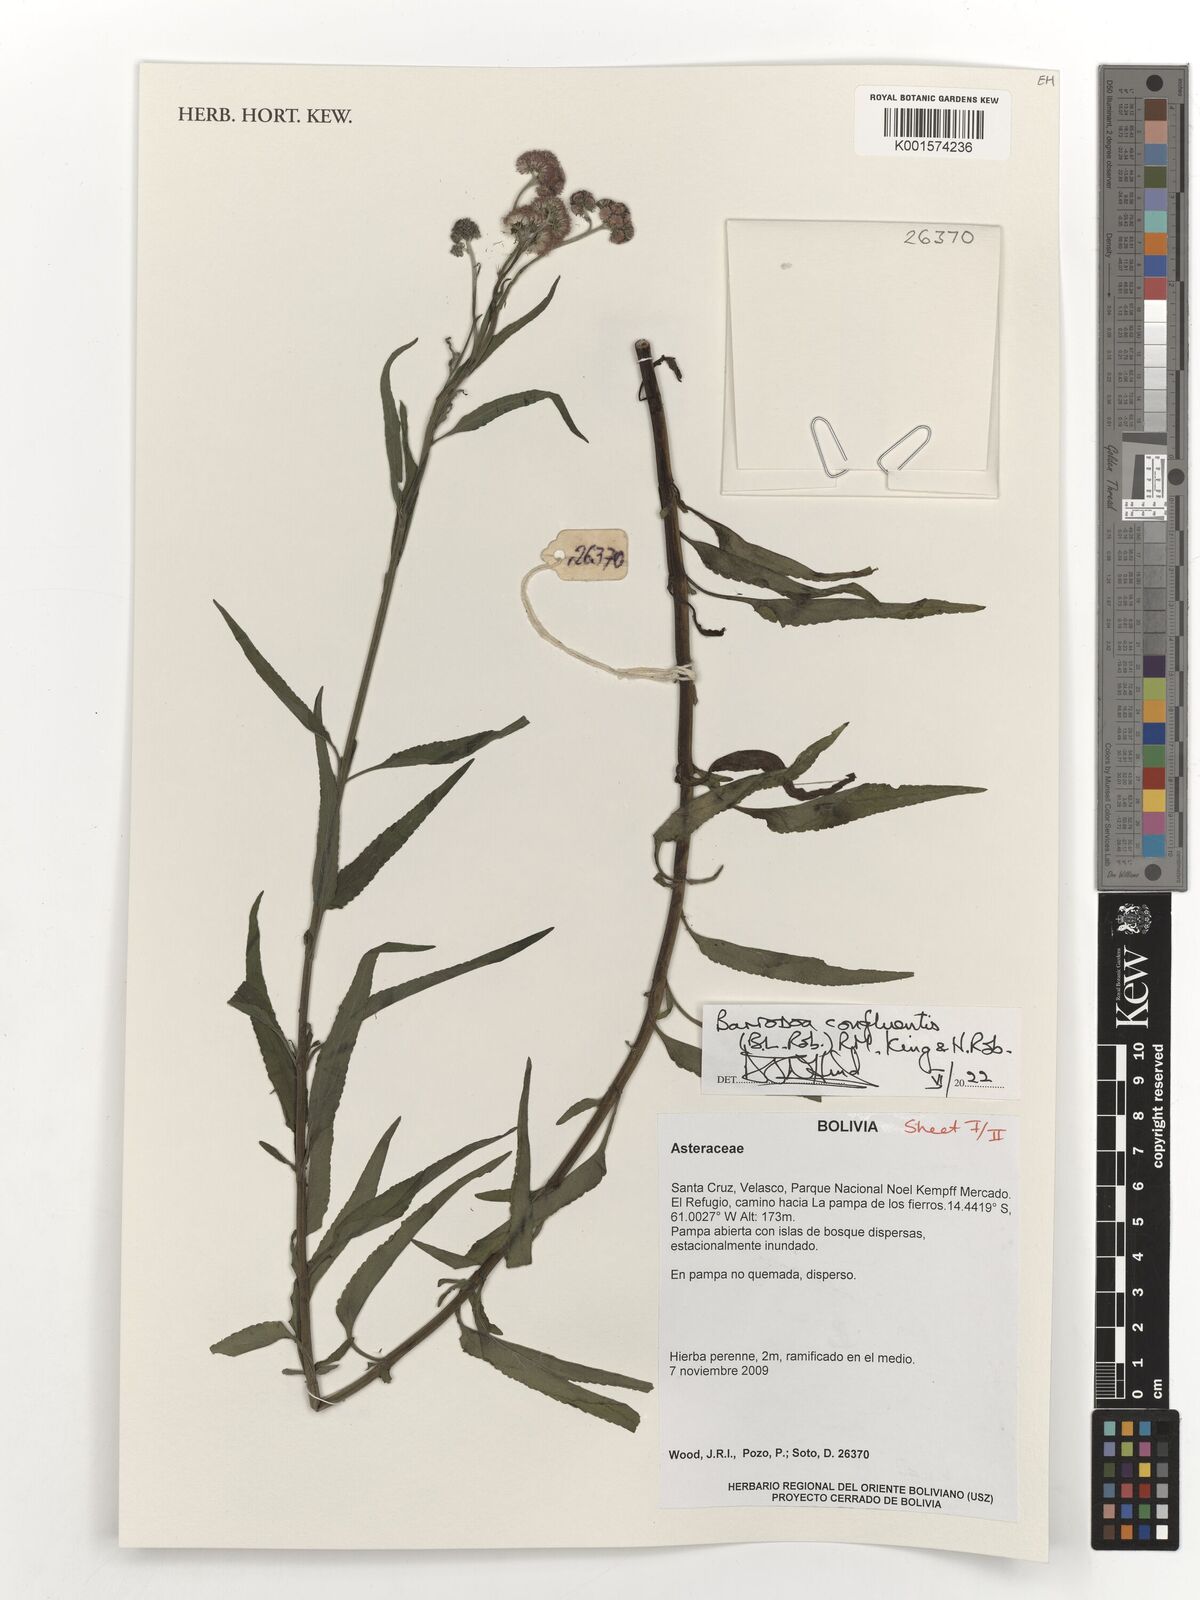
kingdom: Plantae
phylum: Tracheophyta
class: Magnoliopsida
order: Asterales
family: Asteraceae
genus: Barrosoa
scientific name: Barrosoa confluentis
